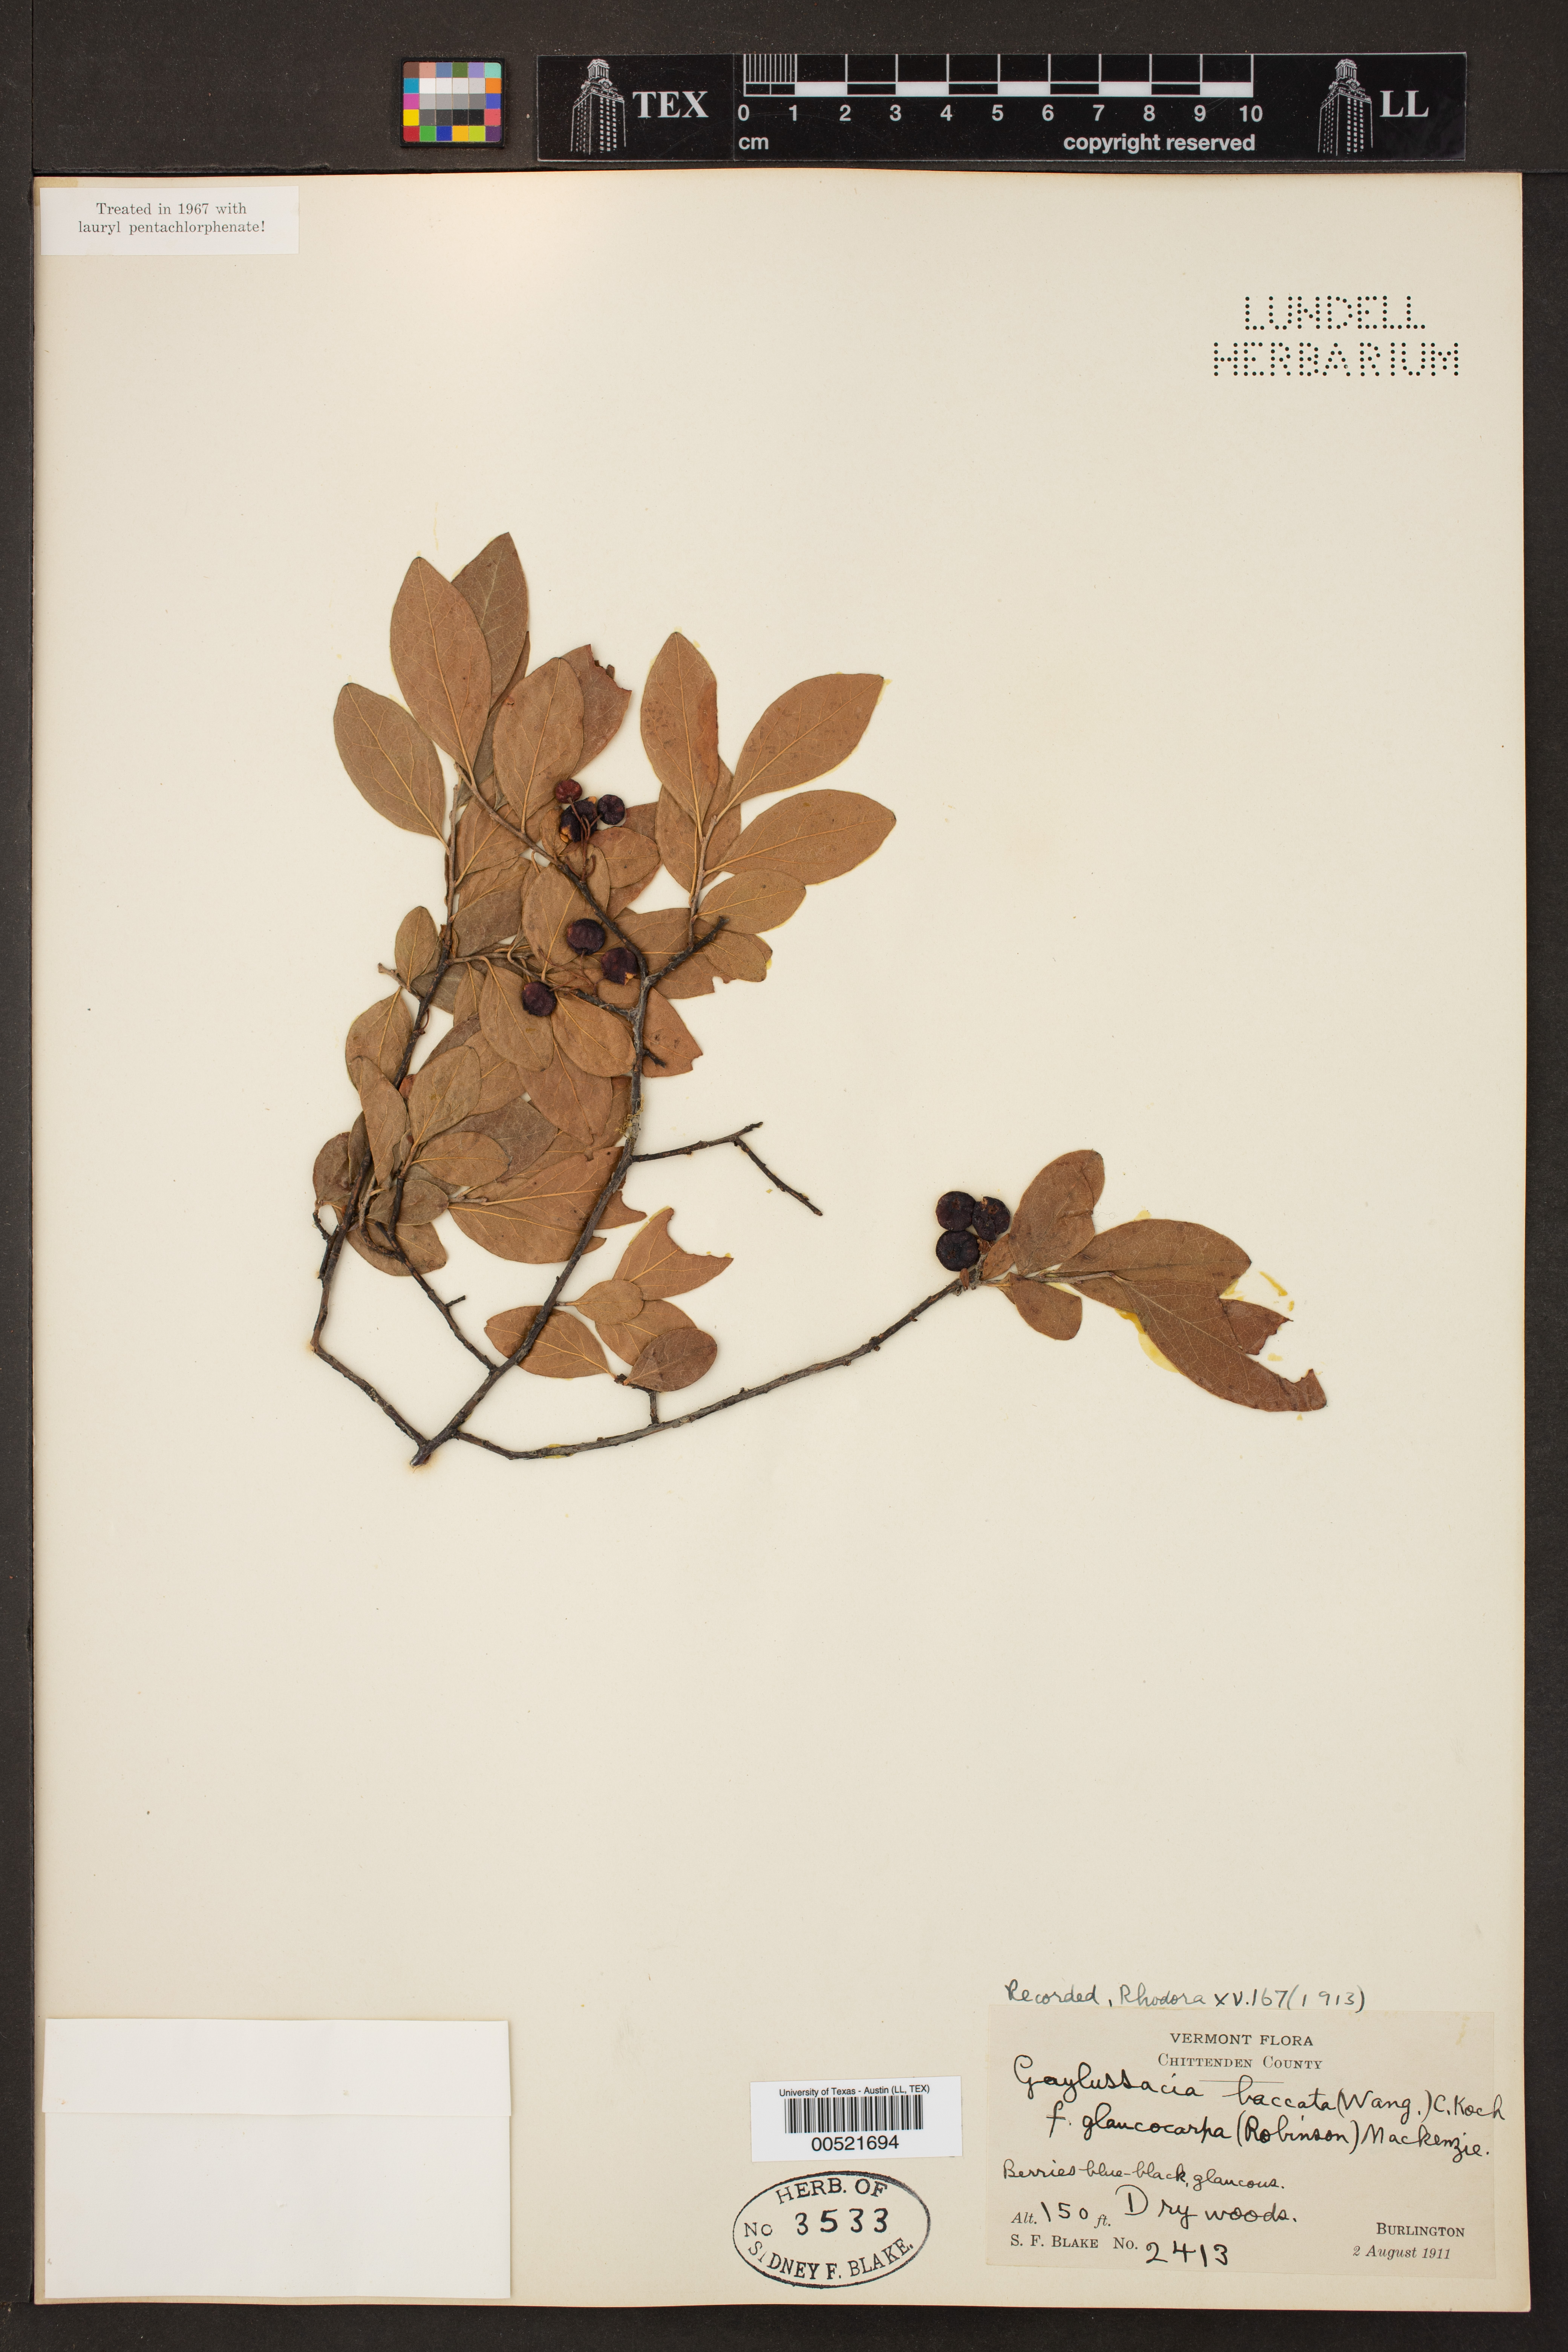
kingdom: Plantae
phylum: Tracheophyta
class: Magnoliopsida
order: Ericales
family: Ericaceae
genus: Gaylussacia
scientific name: Gaylussacia baccata
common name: Black huckleberry
